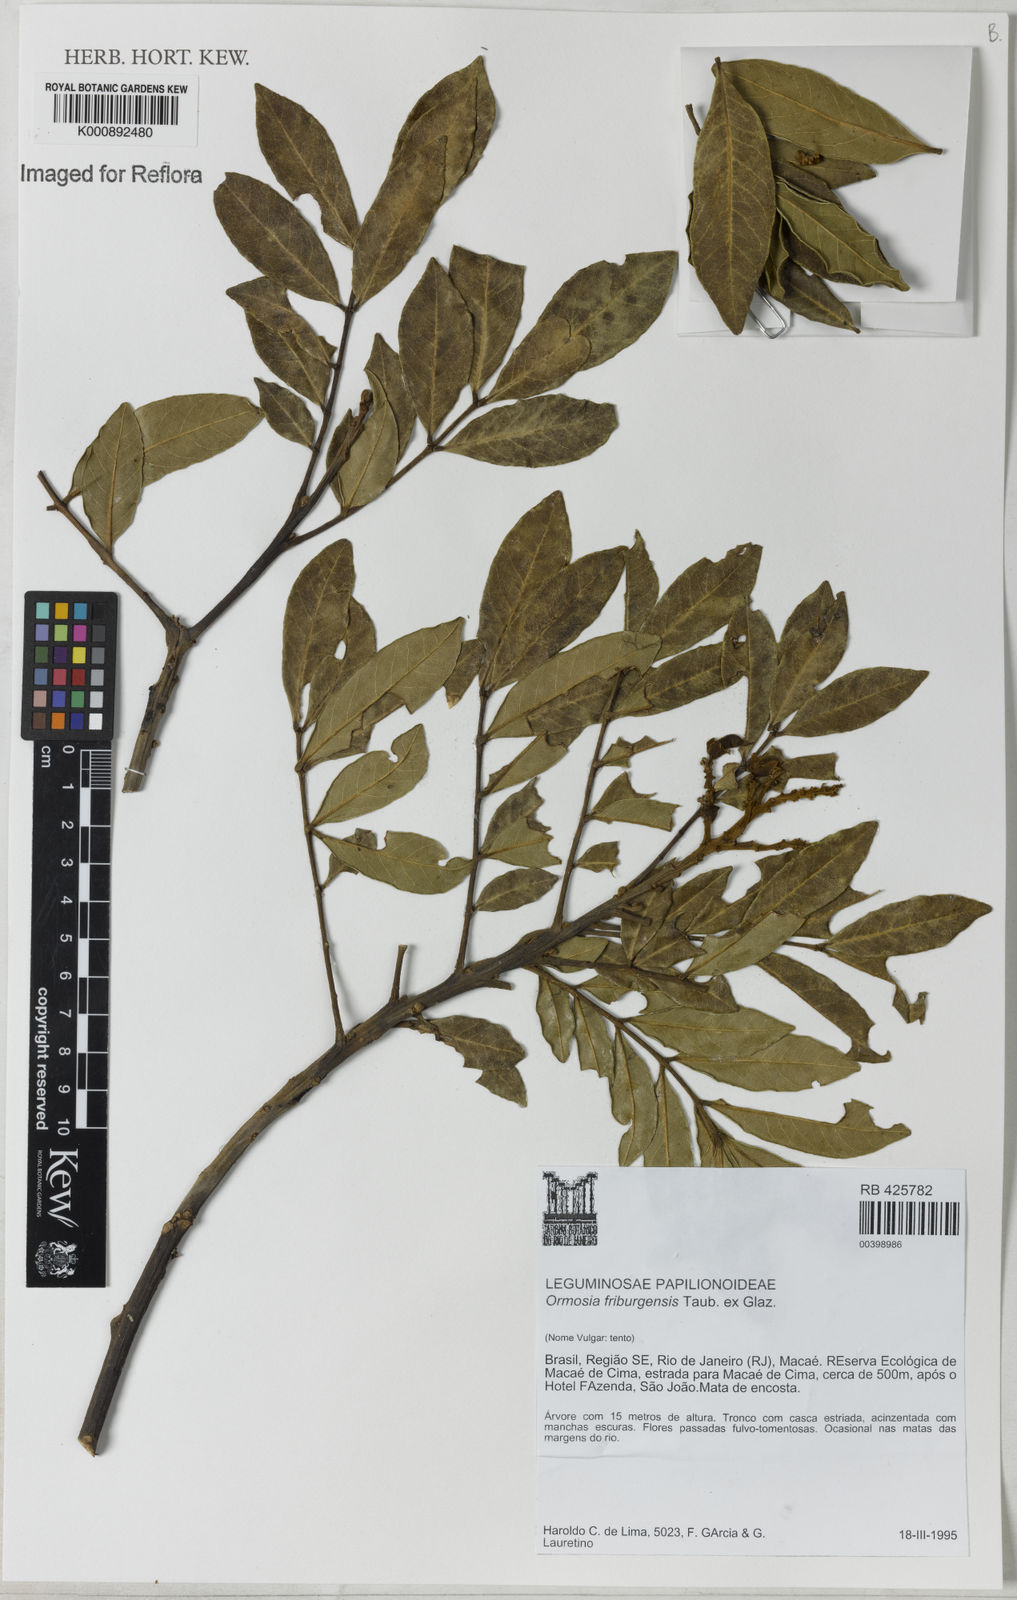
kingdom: Plantae
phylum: Tracheophyta
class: Magnoliopsida
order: Fabales
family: Fabaceae
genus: Ormosia
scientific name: Ormosia
